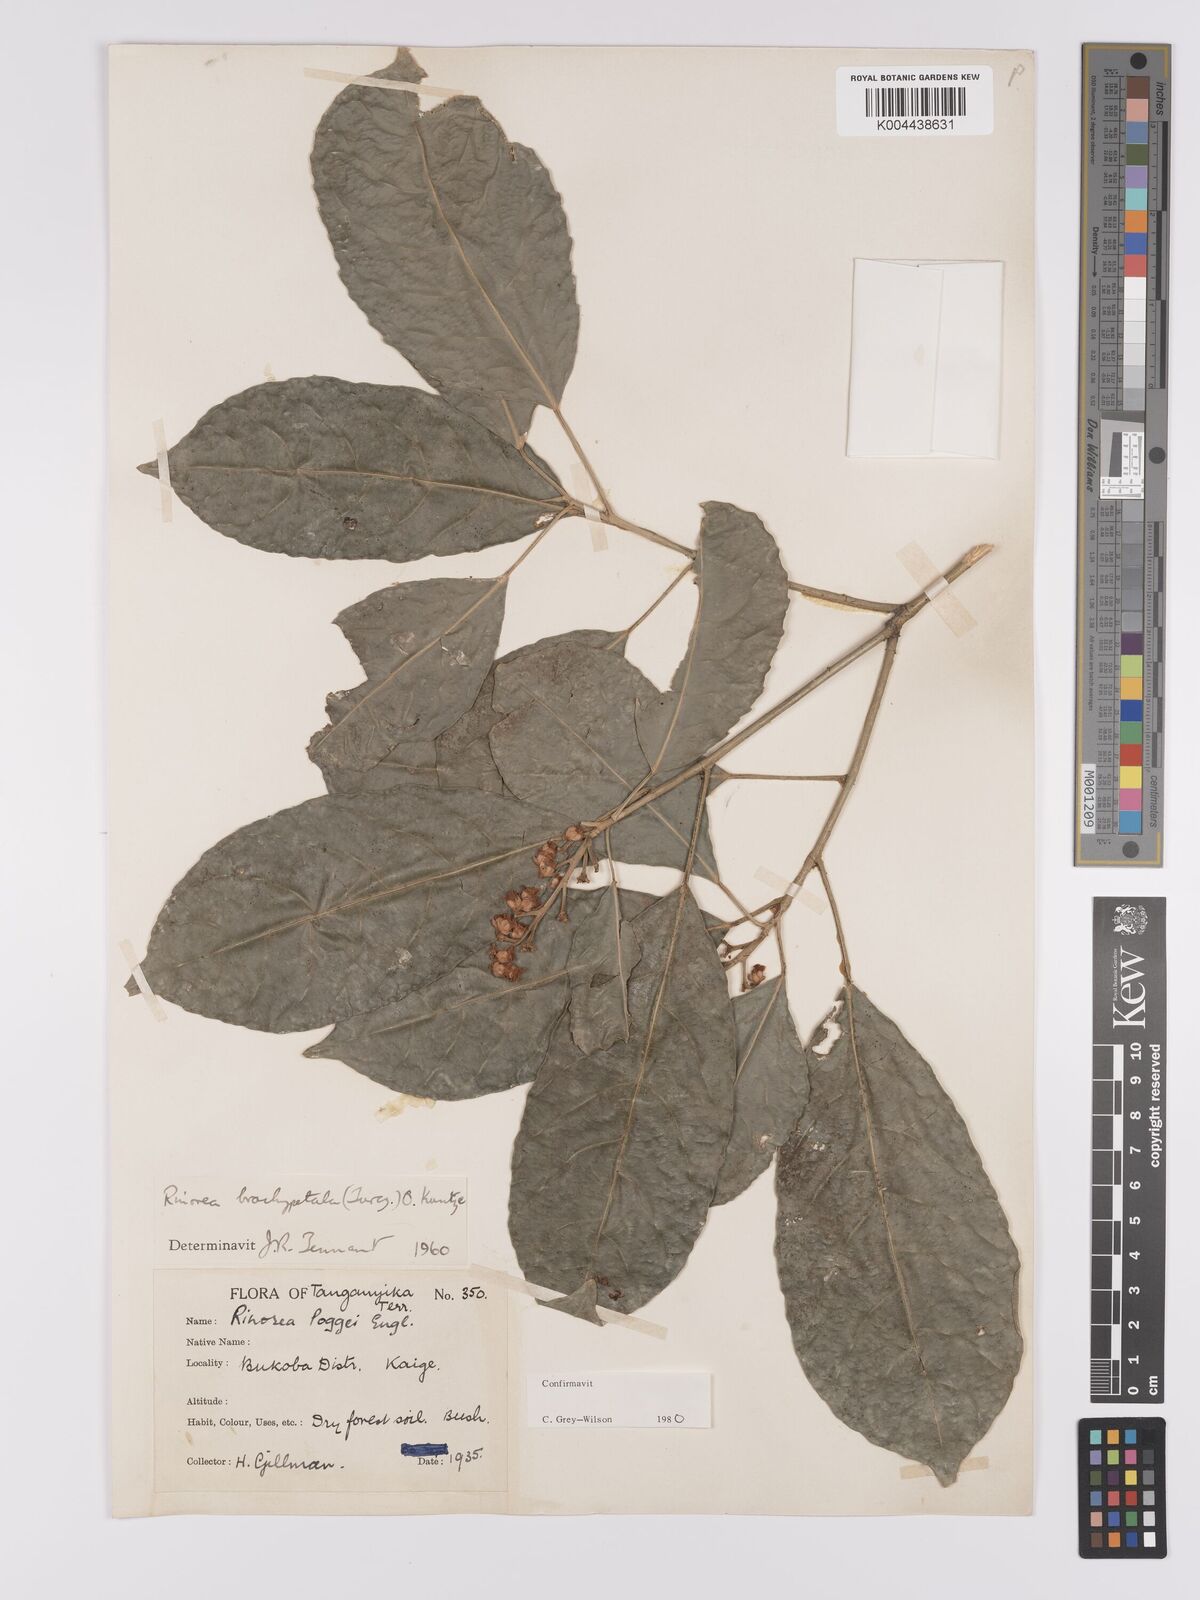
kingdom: Plantae
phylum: Tracheophyta
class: Magnoliopsida
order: Malpighiales
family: Violaceae
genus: Rinorea
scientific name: Rinorea brachypetala
